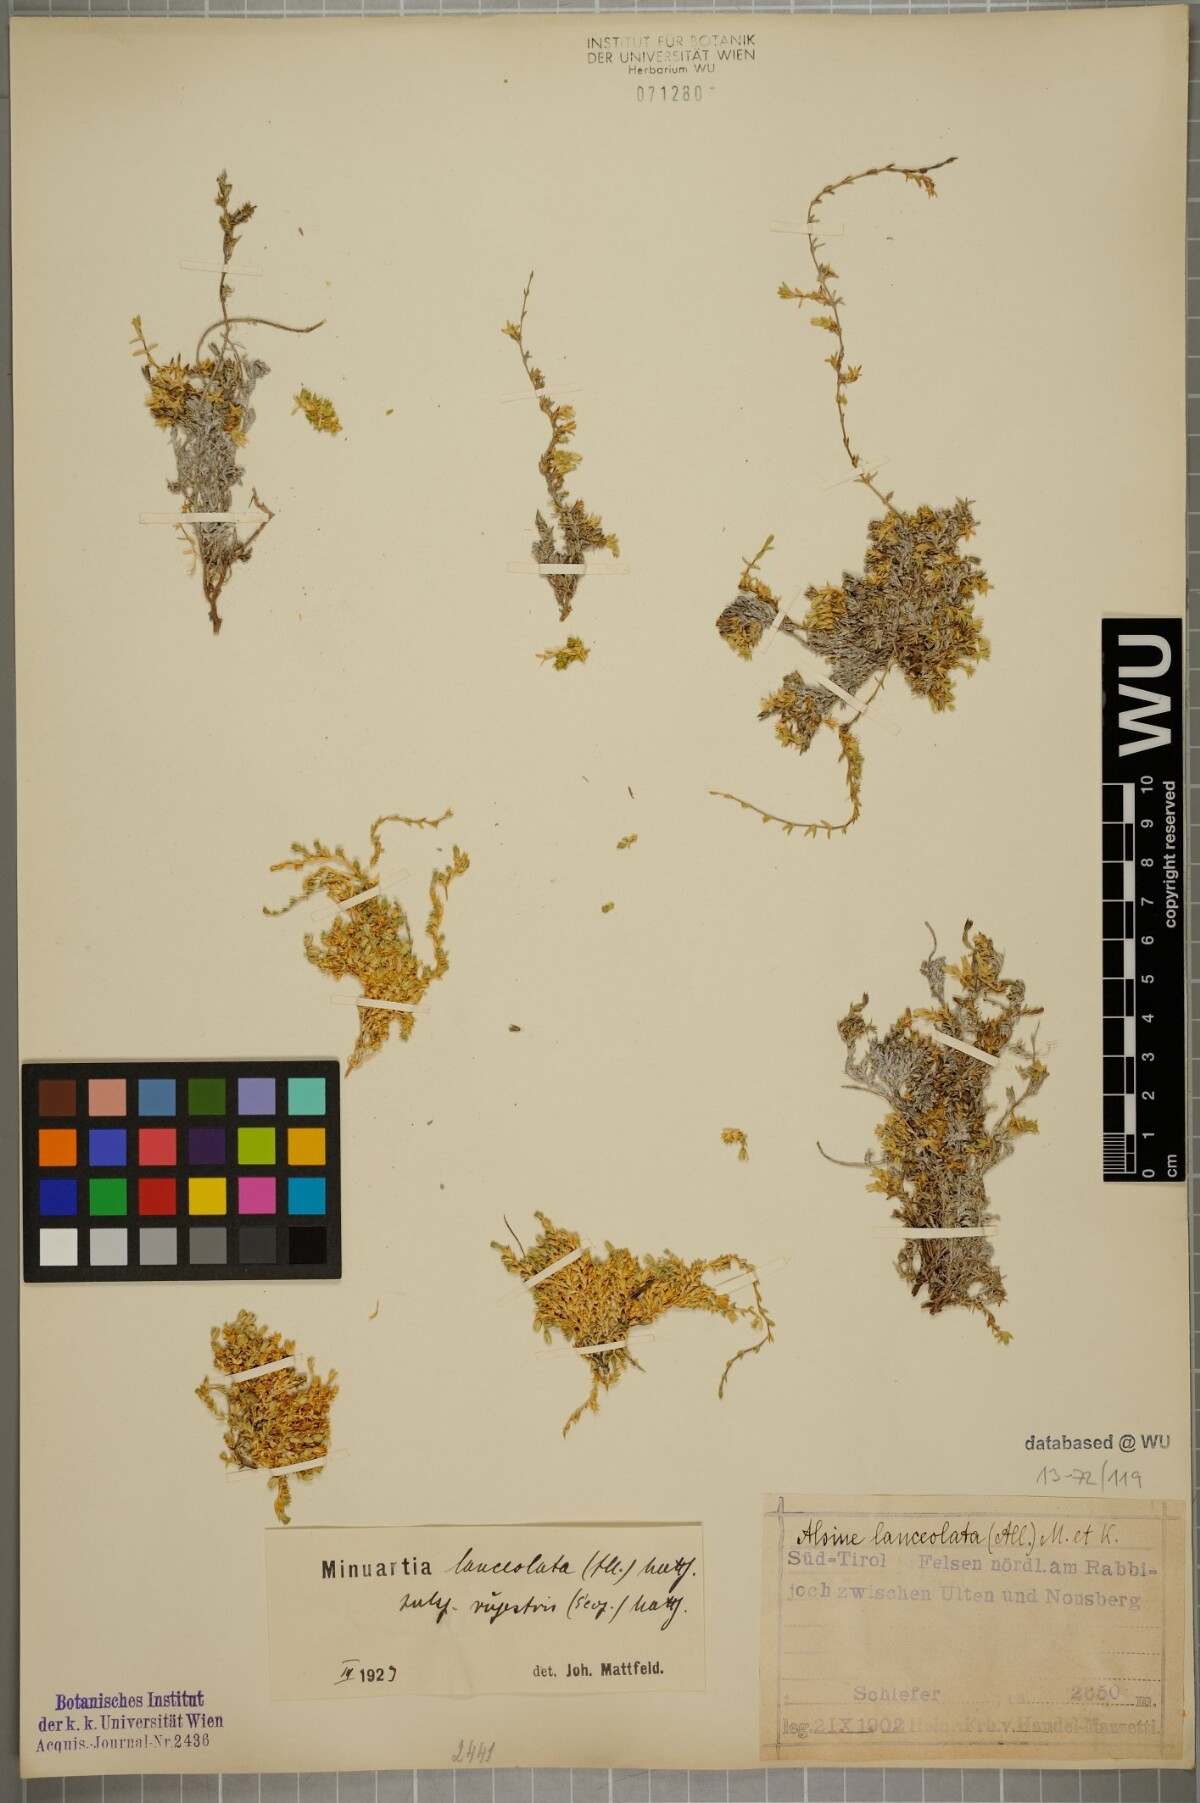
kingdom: Plantae
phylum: Tracheophyta
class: Magnoliopsida
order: Caryophyllales
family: Caryophyllaceae
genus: Facchinia
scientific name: Facchinia rupestris
